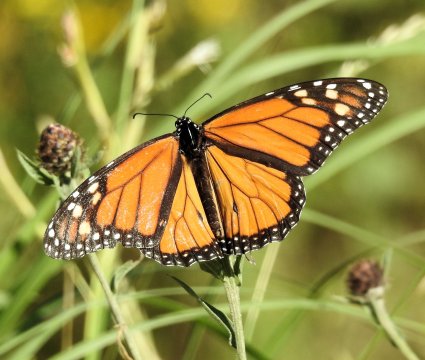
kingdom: Animalia
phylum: Arthropoda
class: Insecta
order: Lepidoptera
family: Nymphalidae
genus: Danaus
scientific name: Danaus plexippus
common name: Monarch
